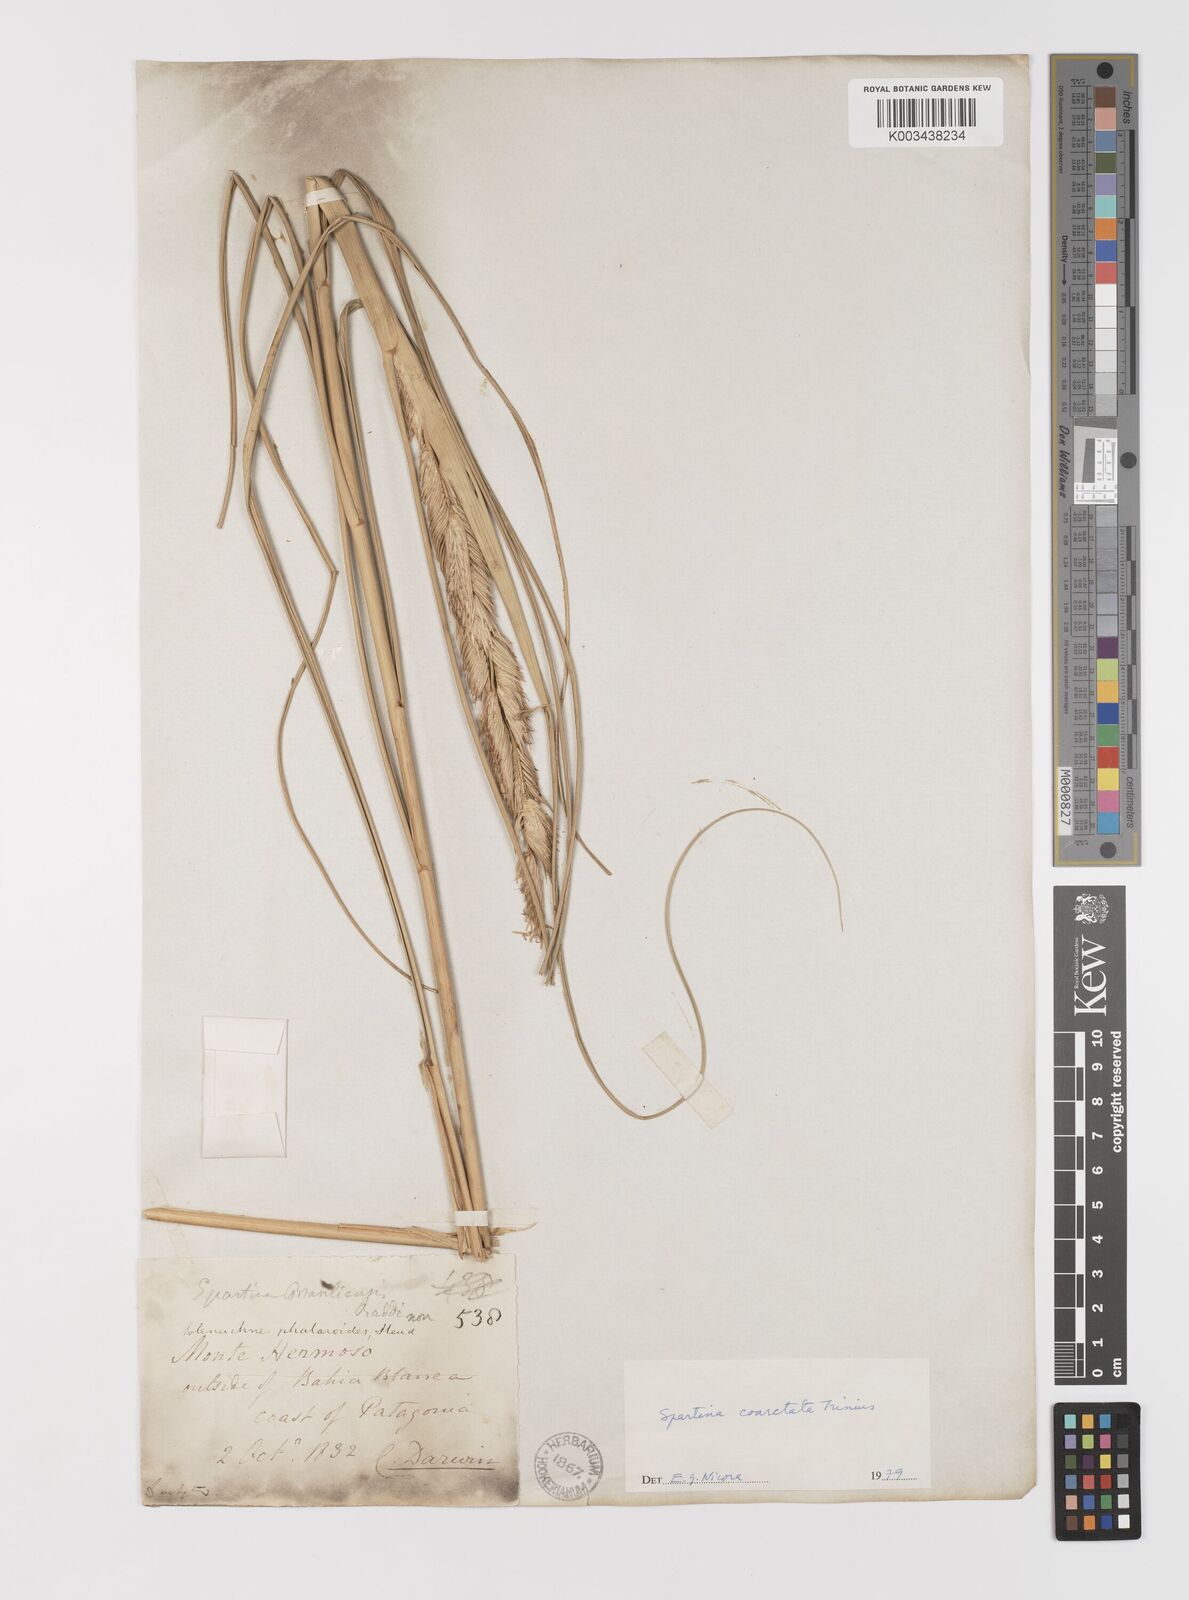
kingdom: Plantae
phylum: Tracheophyta
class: Liliopsida
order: Poales
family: Poaceae
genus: Sporobolus
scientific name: Sporobolus coarctatus
